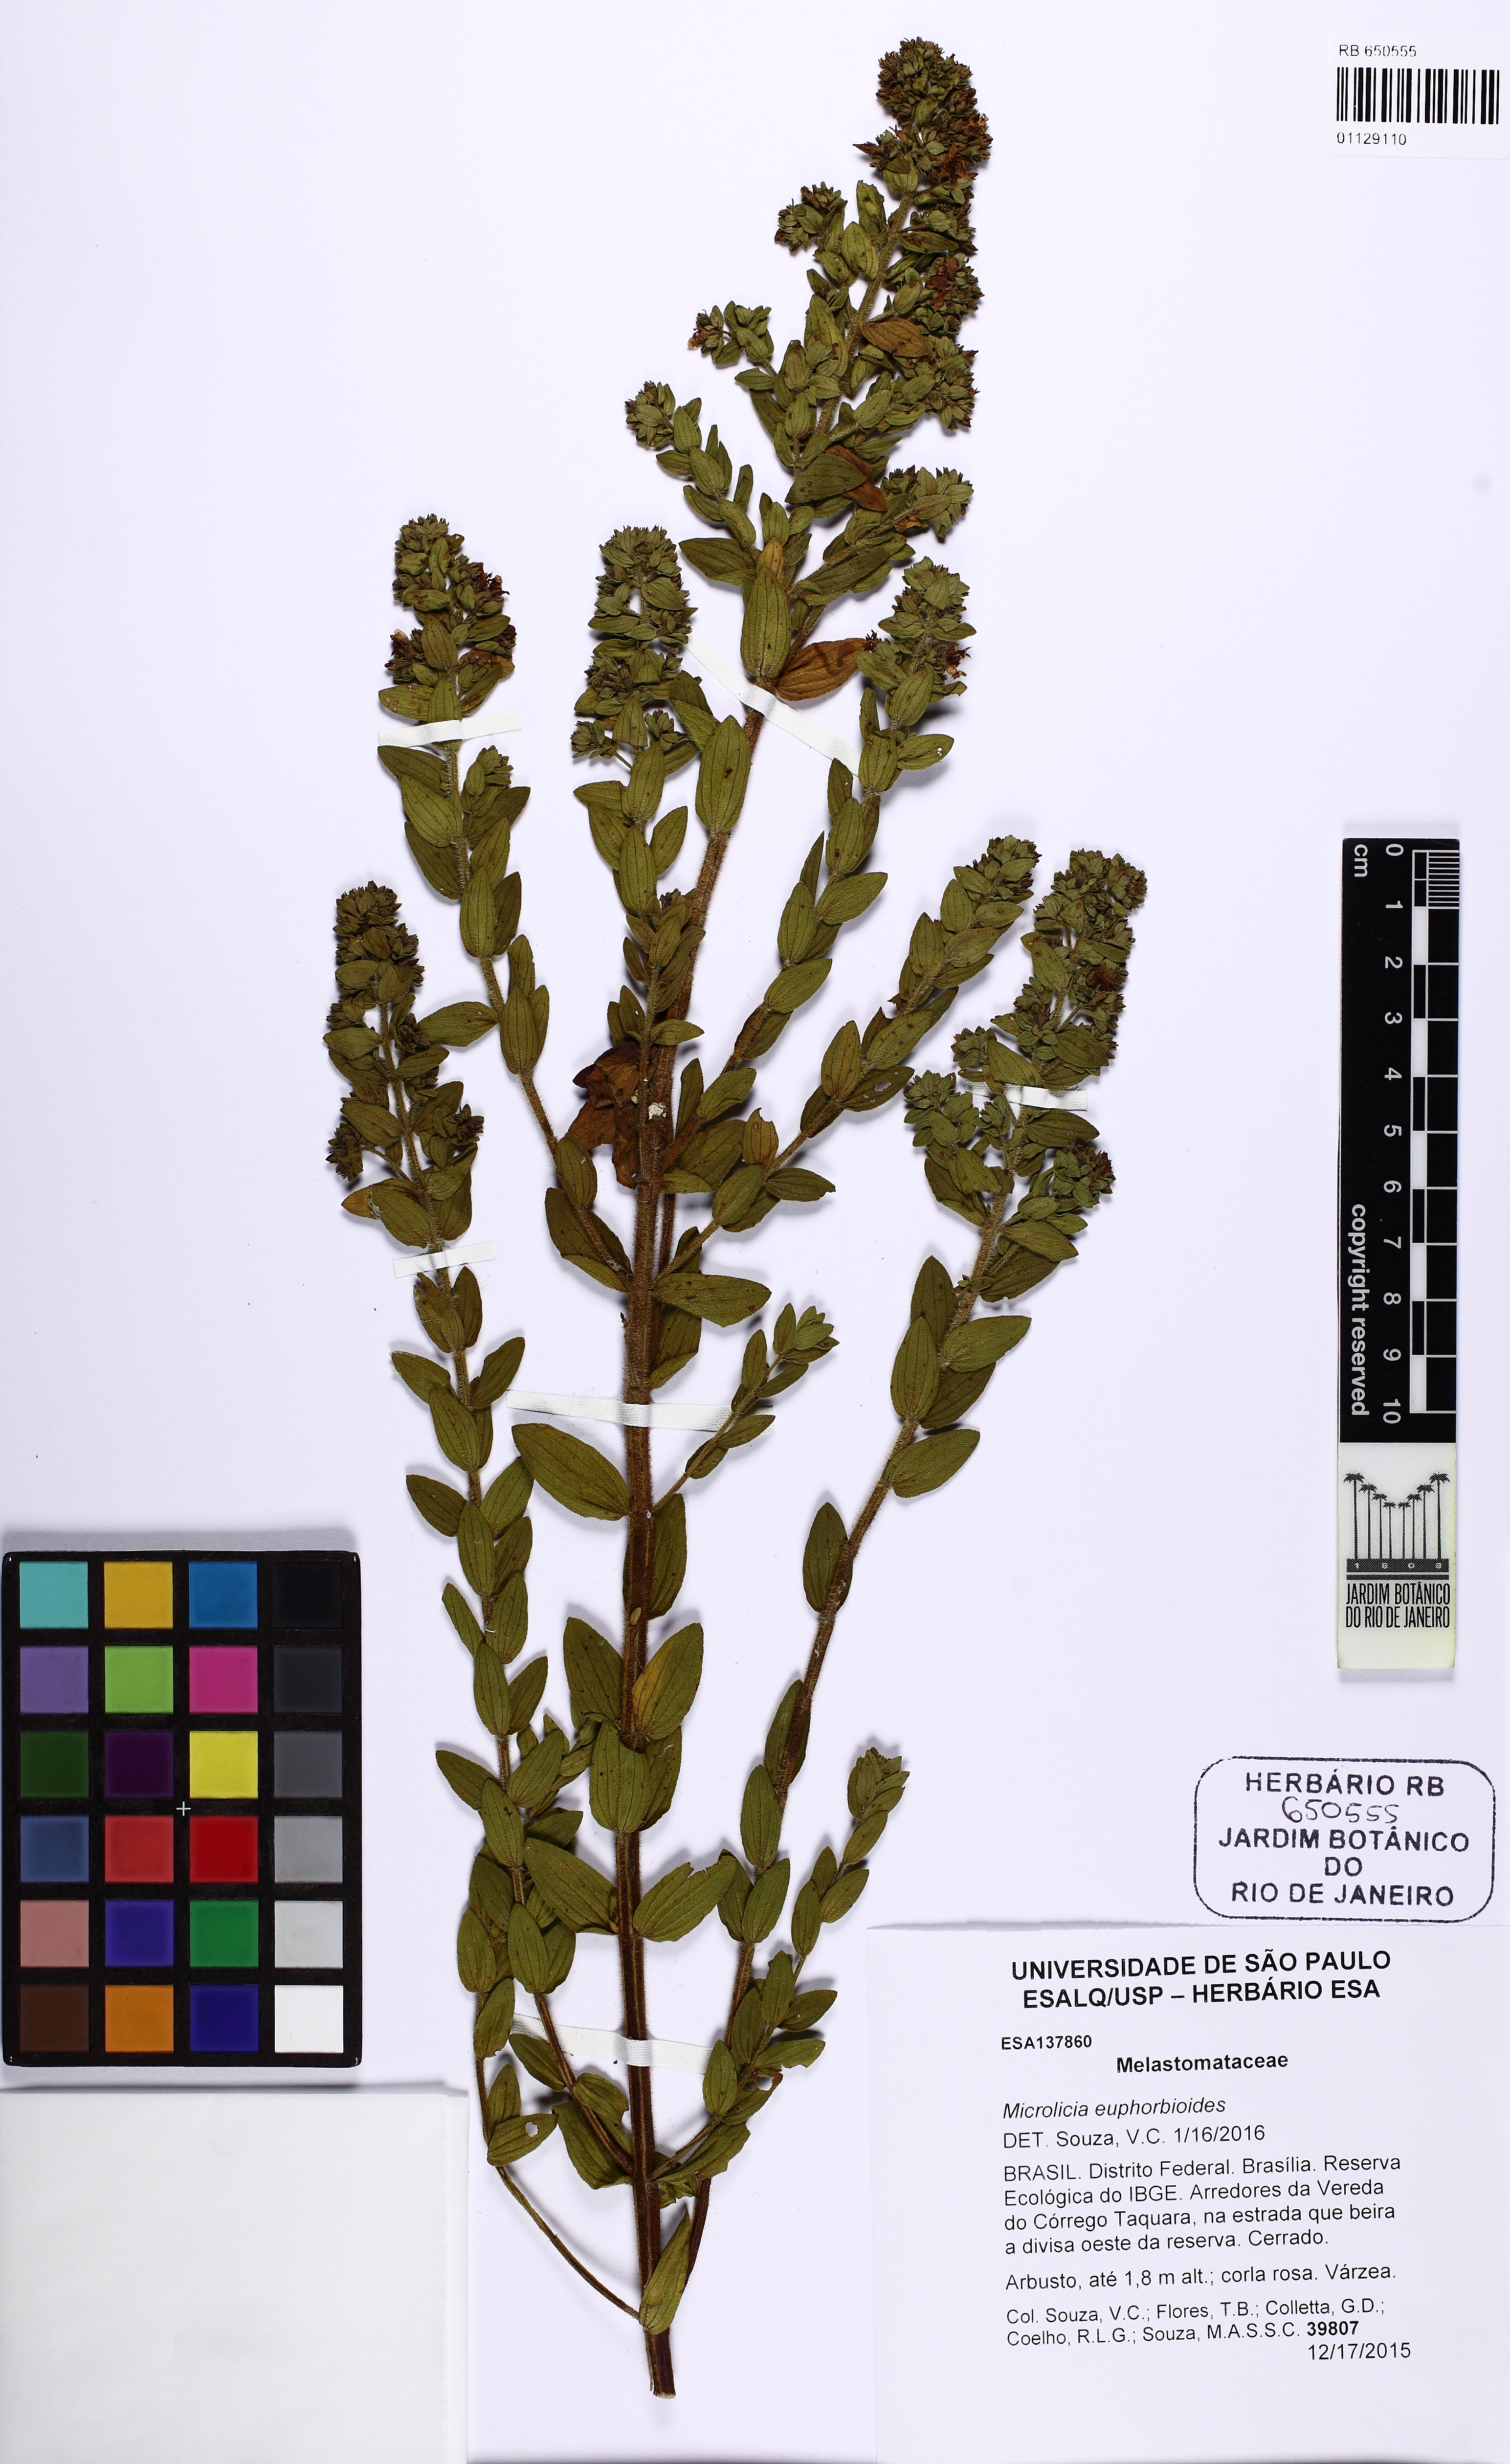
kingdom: Plantae
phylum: Tracheophyta
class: Magnoliopsida
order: Myrtales
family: Melastomataceae
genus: Microlicia
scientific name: Microlicia helvola
